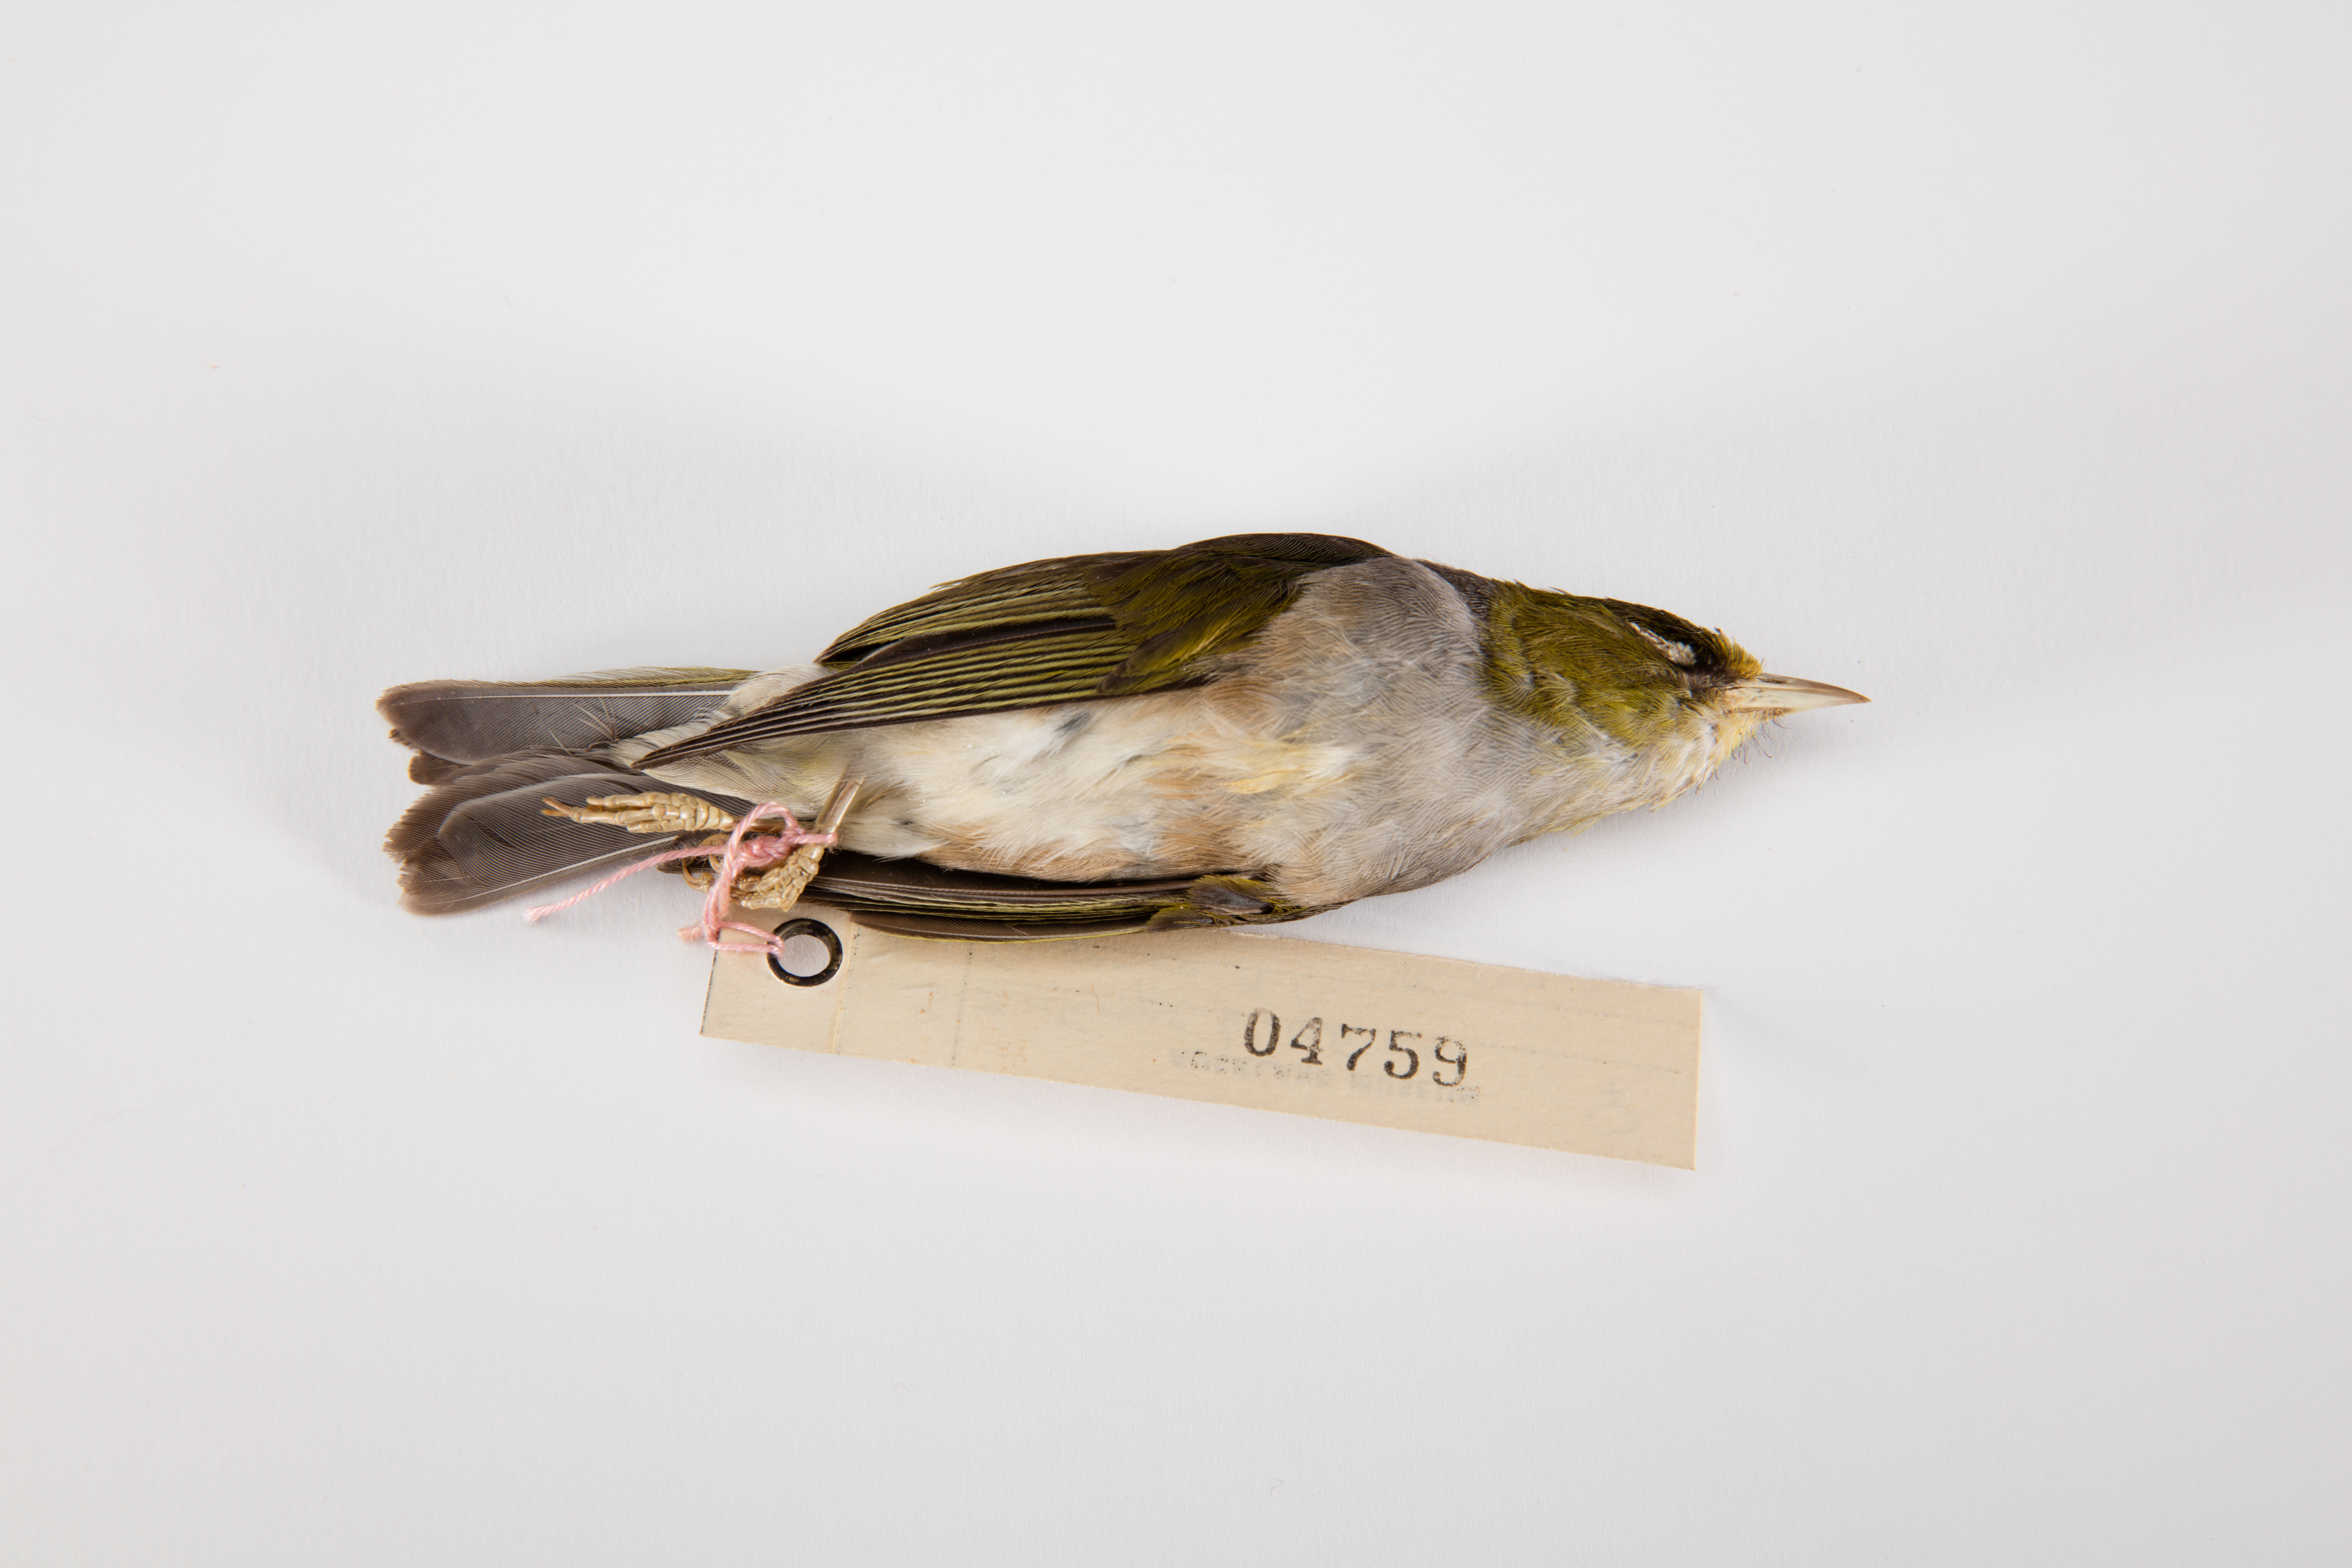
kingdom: Animalia
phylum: Chordata
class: Aves
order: Passeriformes
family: Zosteropidae
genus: Zosterops
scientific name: Zosterops lateralis
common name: Silvereye
